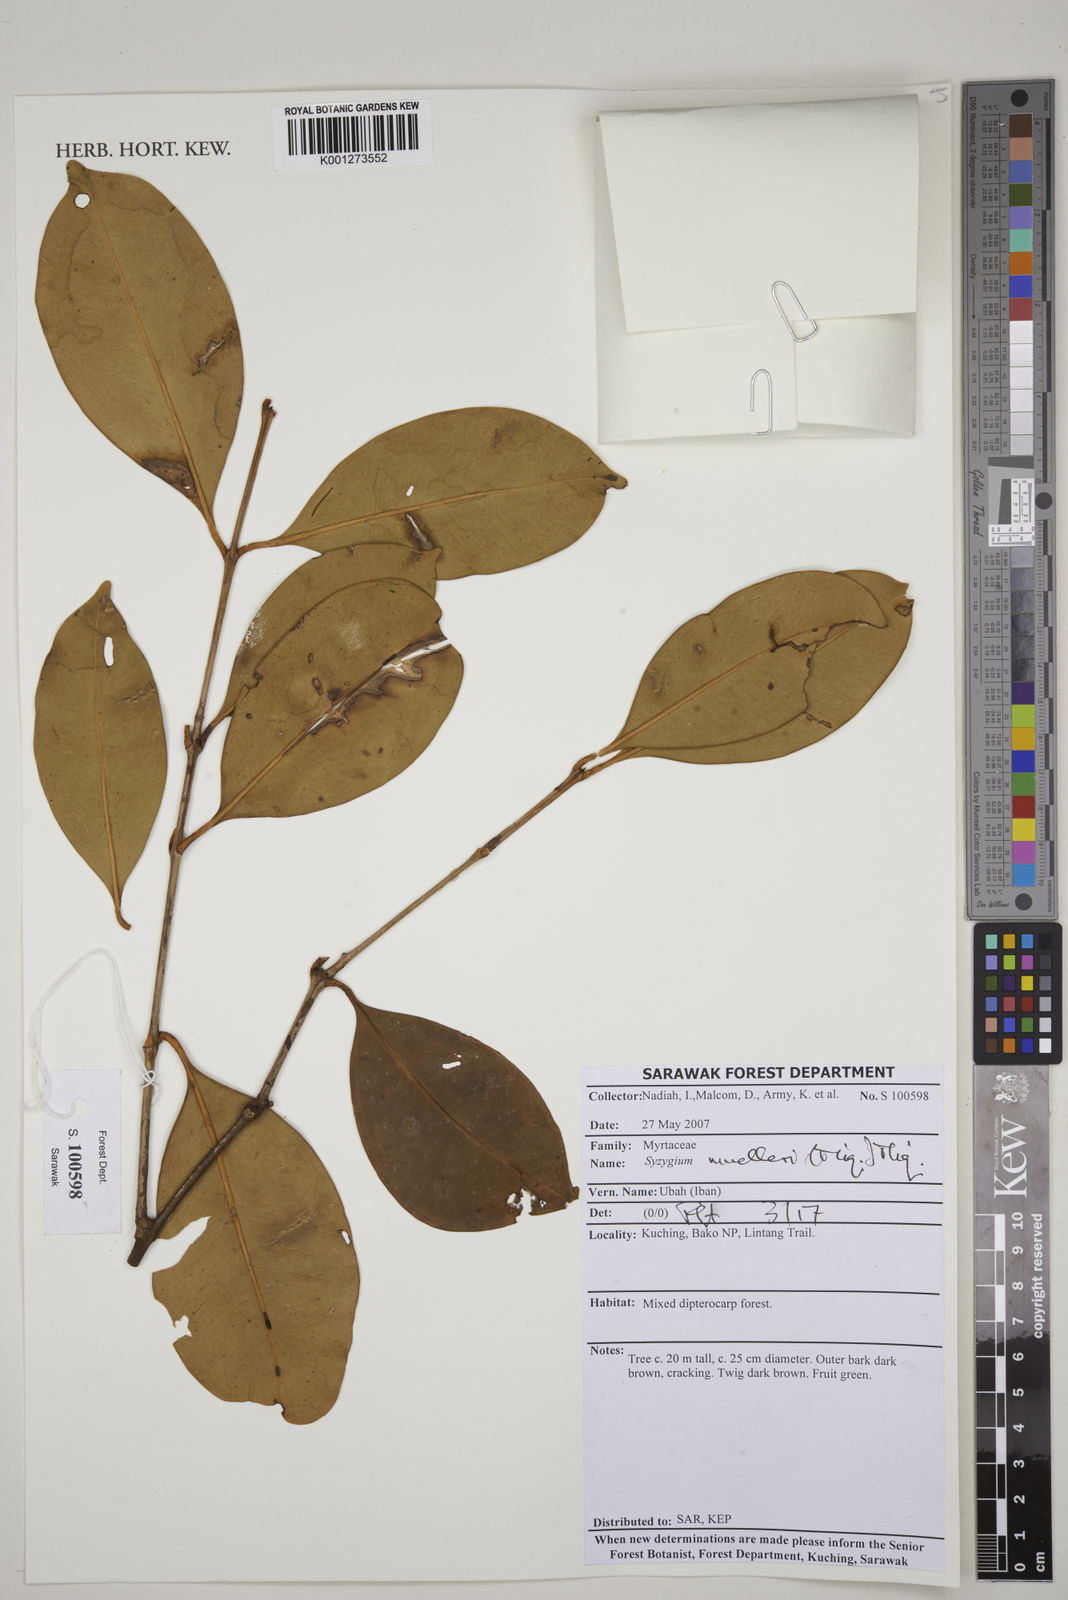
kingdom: Plantae
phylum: Tracheophyta
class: Magnoliopsida
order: Myrtales
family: Myrtaceae
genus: Syzygium
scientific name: Syzygium muelleri
